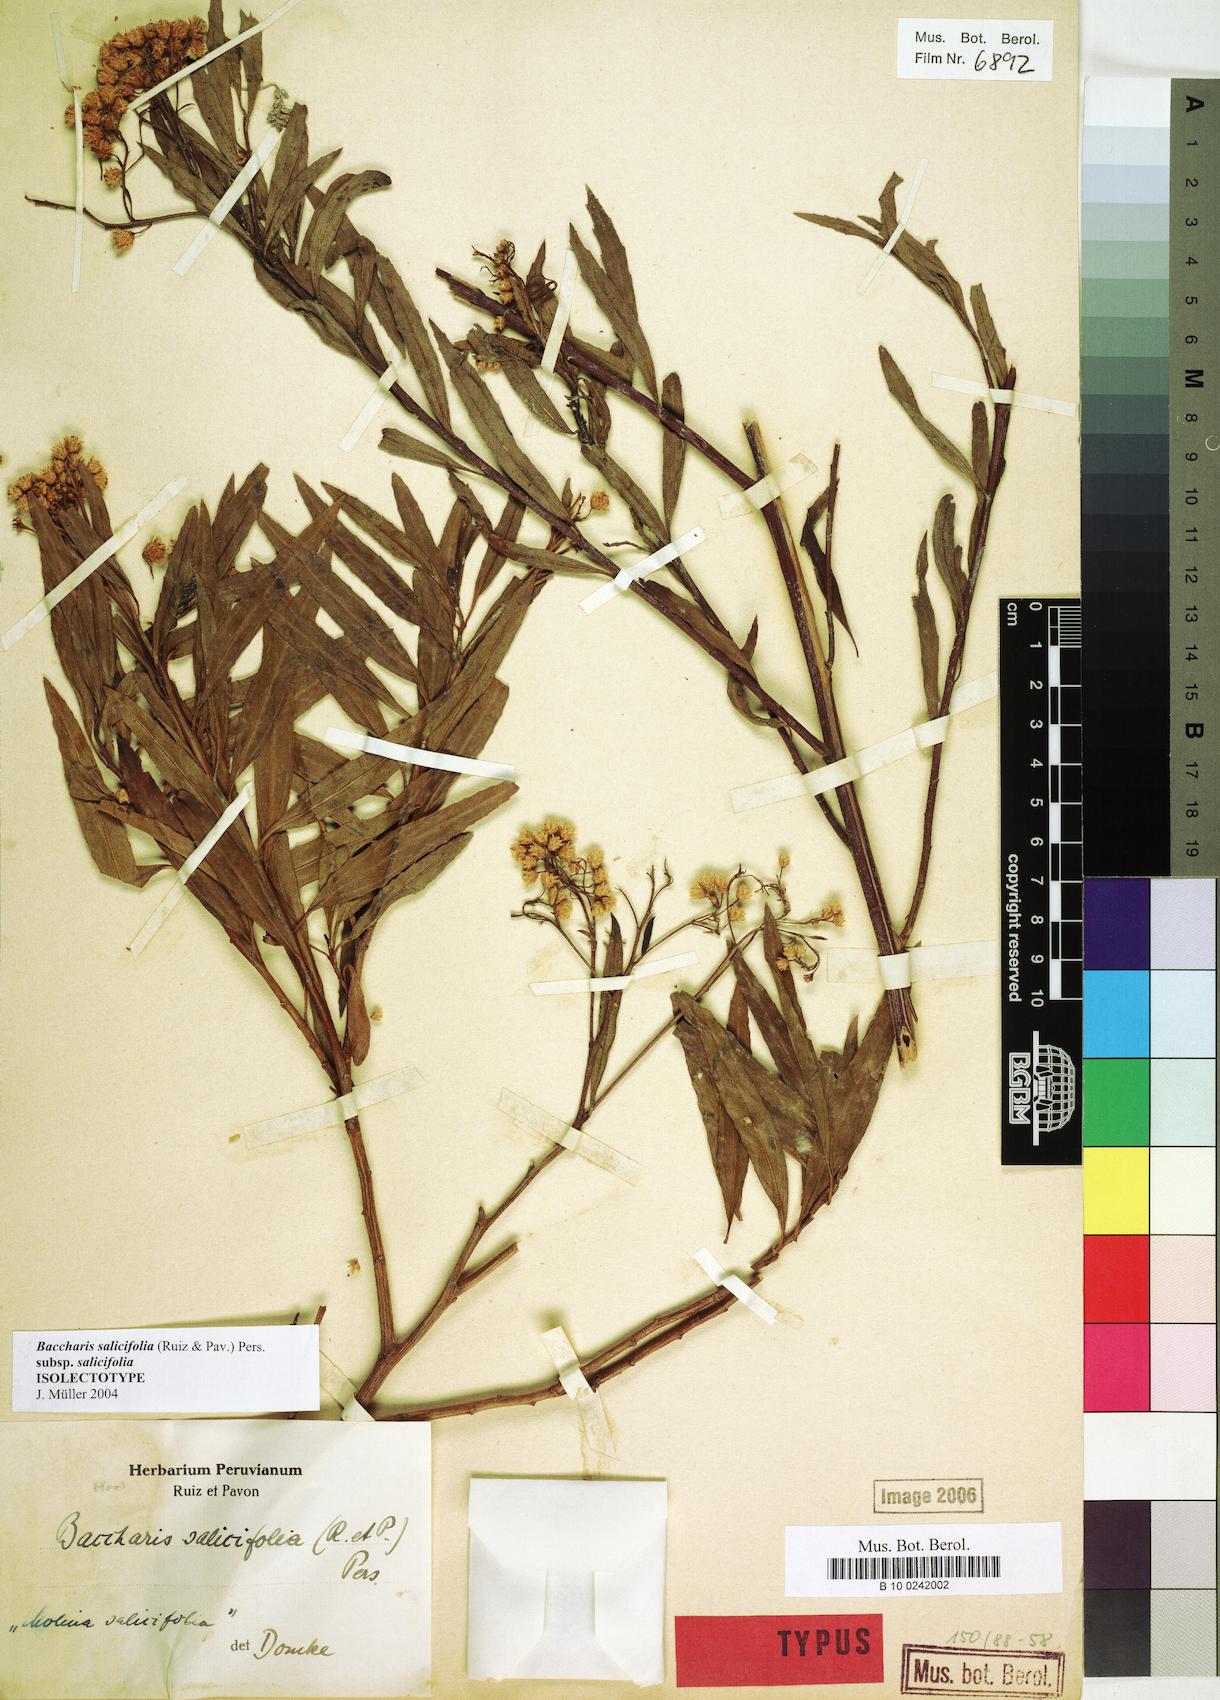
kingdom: Plantae
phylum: Tracheophyta
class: Magnoliopsida
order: Asterales
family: Asteraceae
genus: Baccharis
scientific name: Baccharis salicifolia
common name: Sticky baccharis
